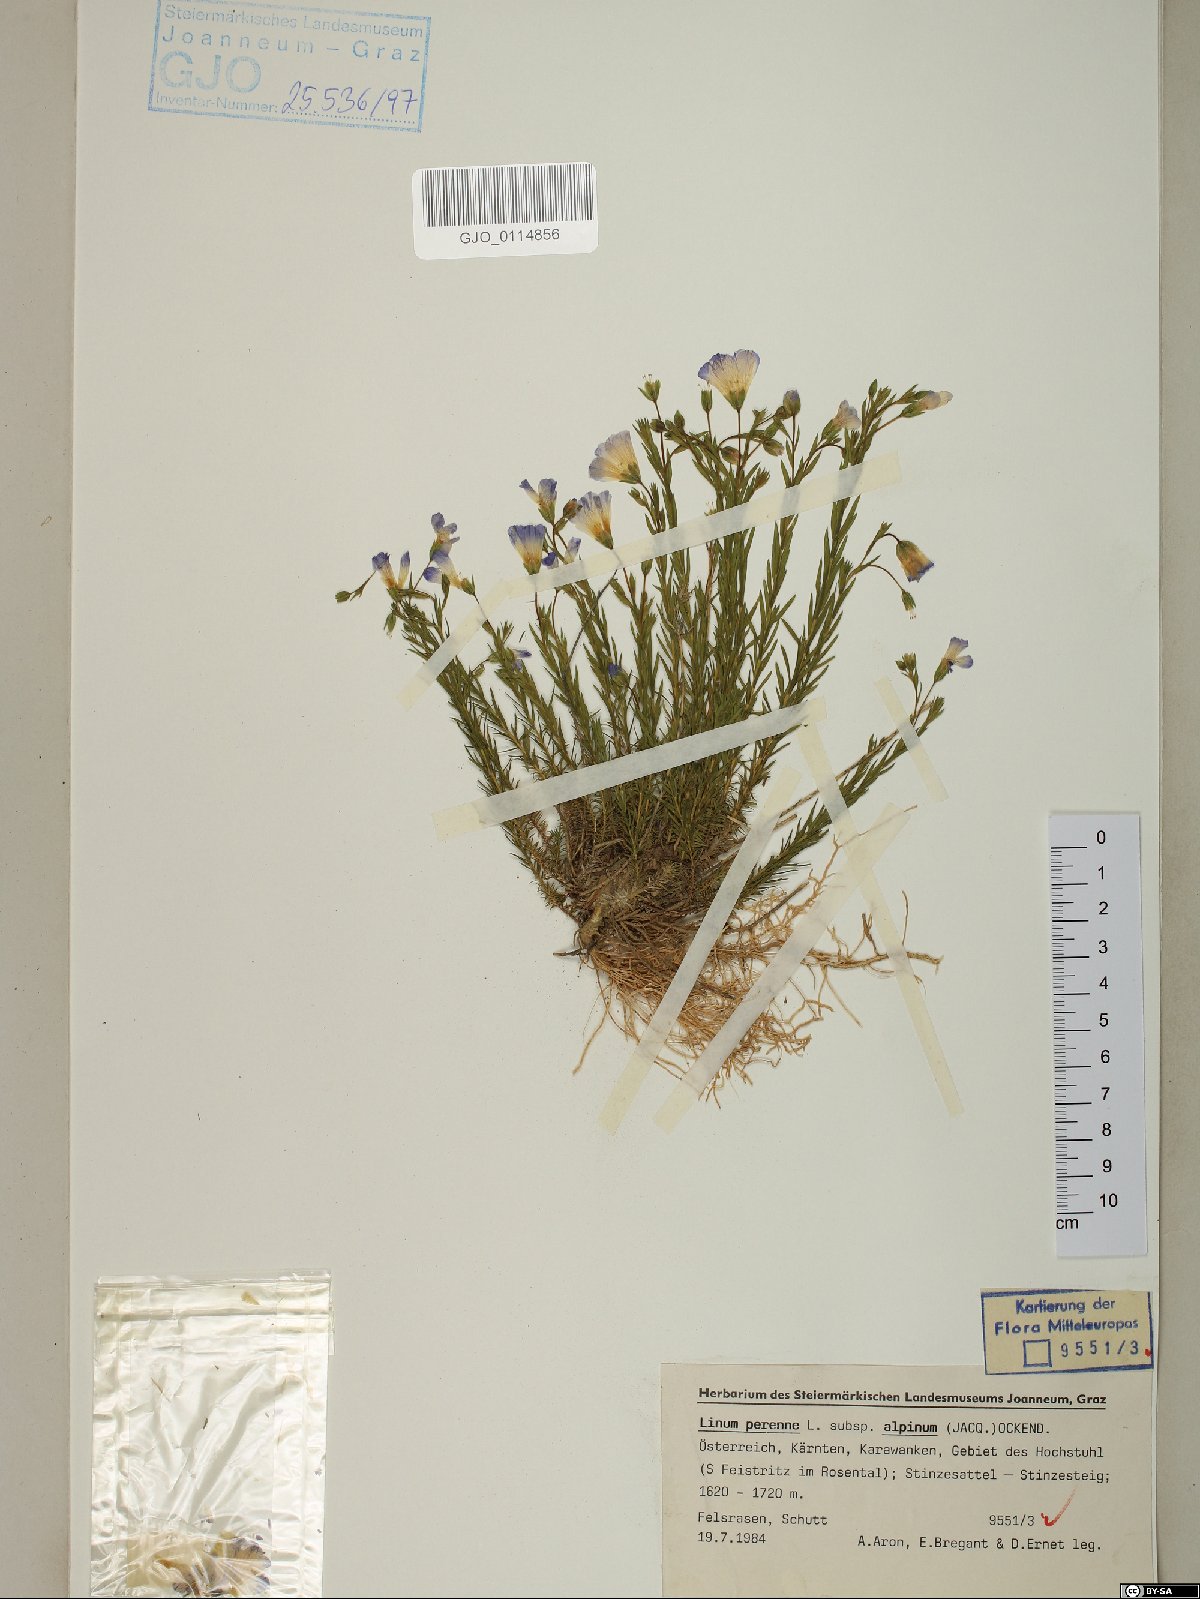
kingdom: Plantae
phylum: Tracheophyta
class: Magnoliopsida
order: Malpighiales
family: Linaceae
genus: Linum
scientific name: Linum alpinum
